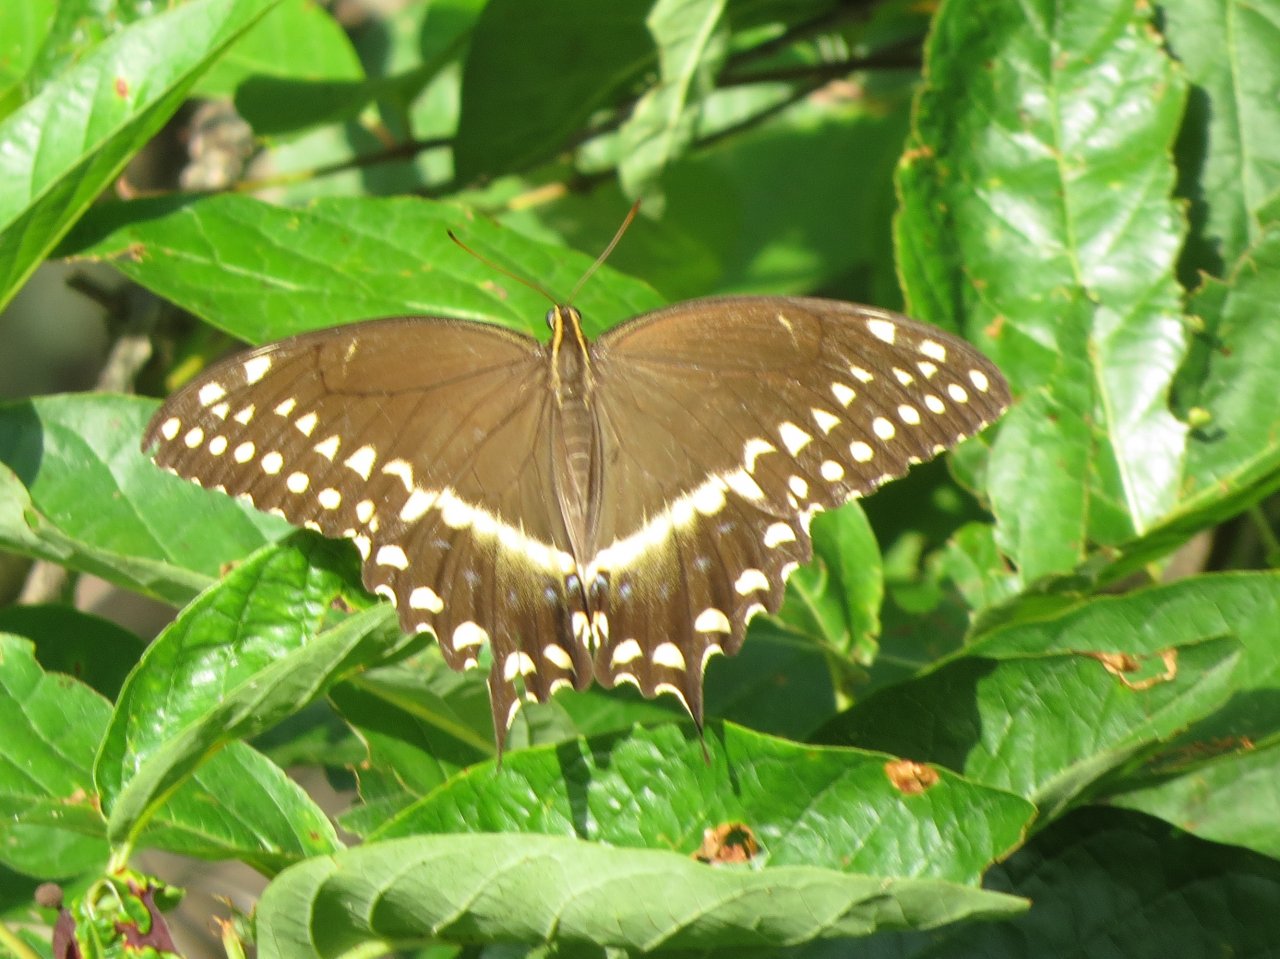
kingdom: Animalia
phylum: Arthropoda
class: Insecta
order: Lepidoptera
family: Papilionidae
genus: Pterourus
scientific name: Pterourus palamedes
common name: Palamedes Swallowtail
